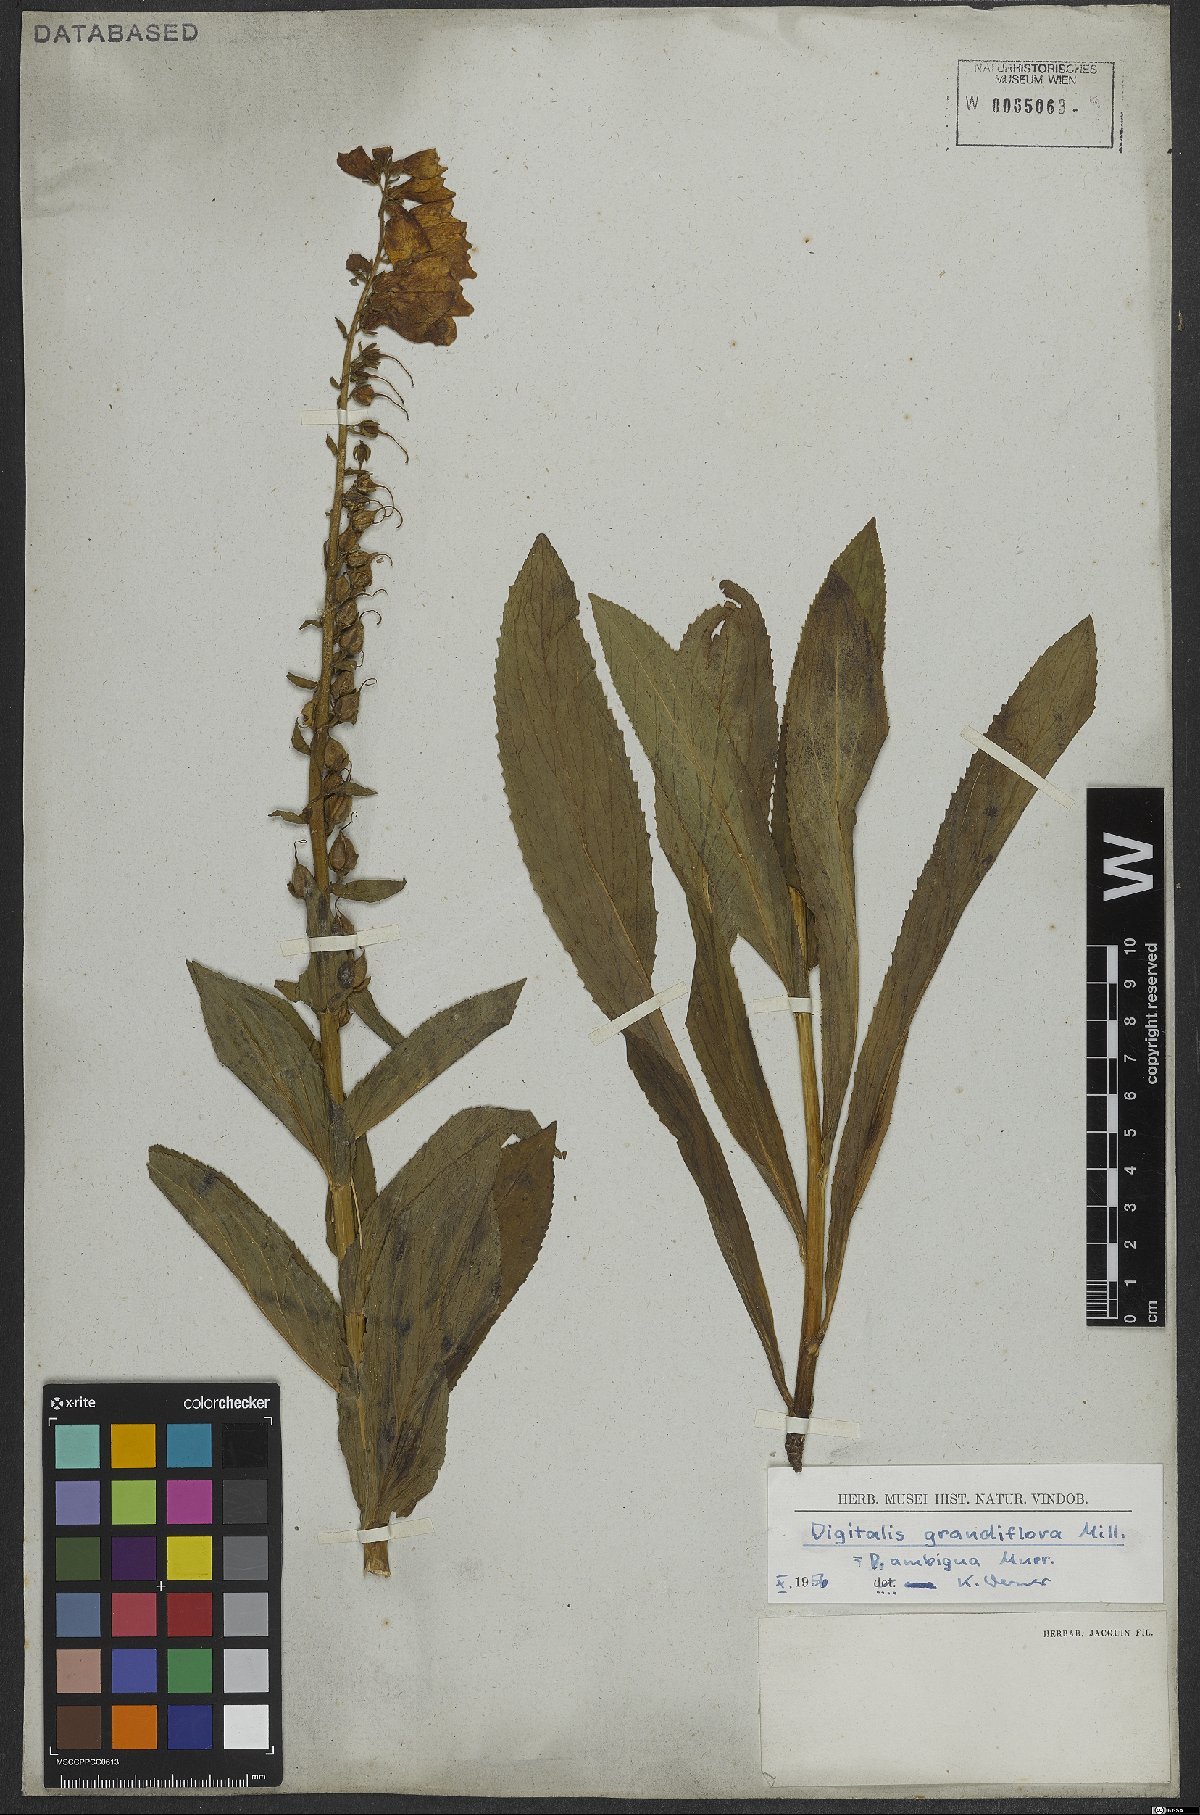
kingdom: Plantae
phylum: Tracheophyta
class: Magnoliopsida
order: Lamiales
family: Plantaginaceae
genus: Digitalis
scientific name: Digitalis grandiflora
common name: Yellow foxglove
